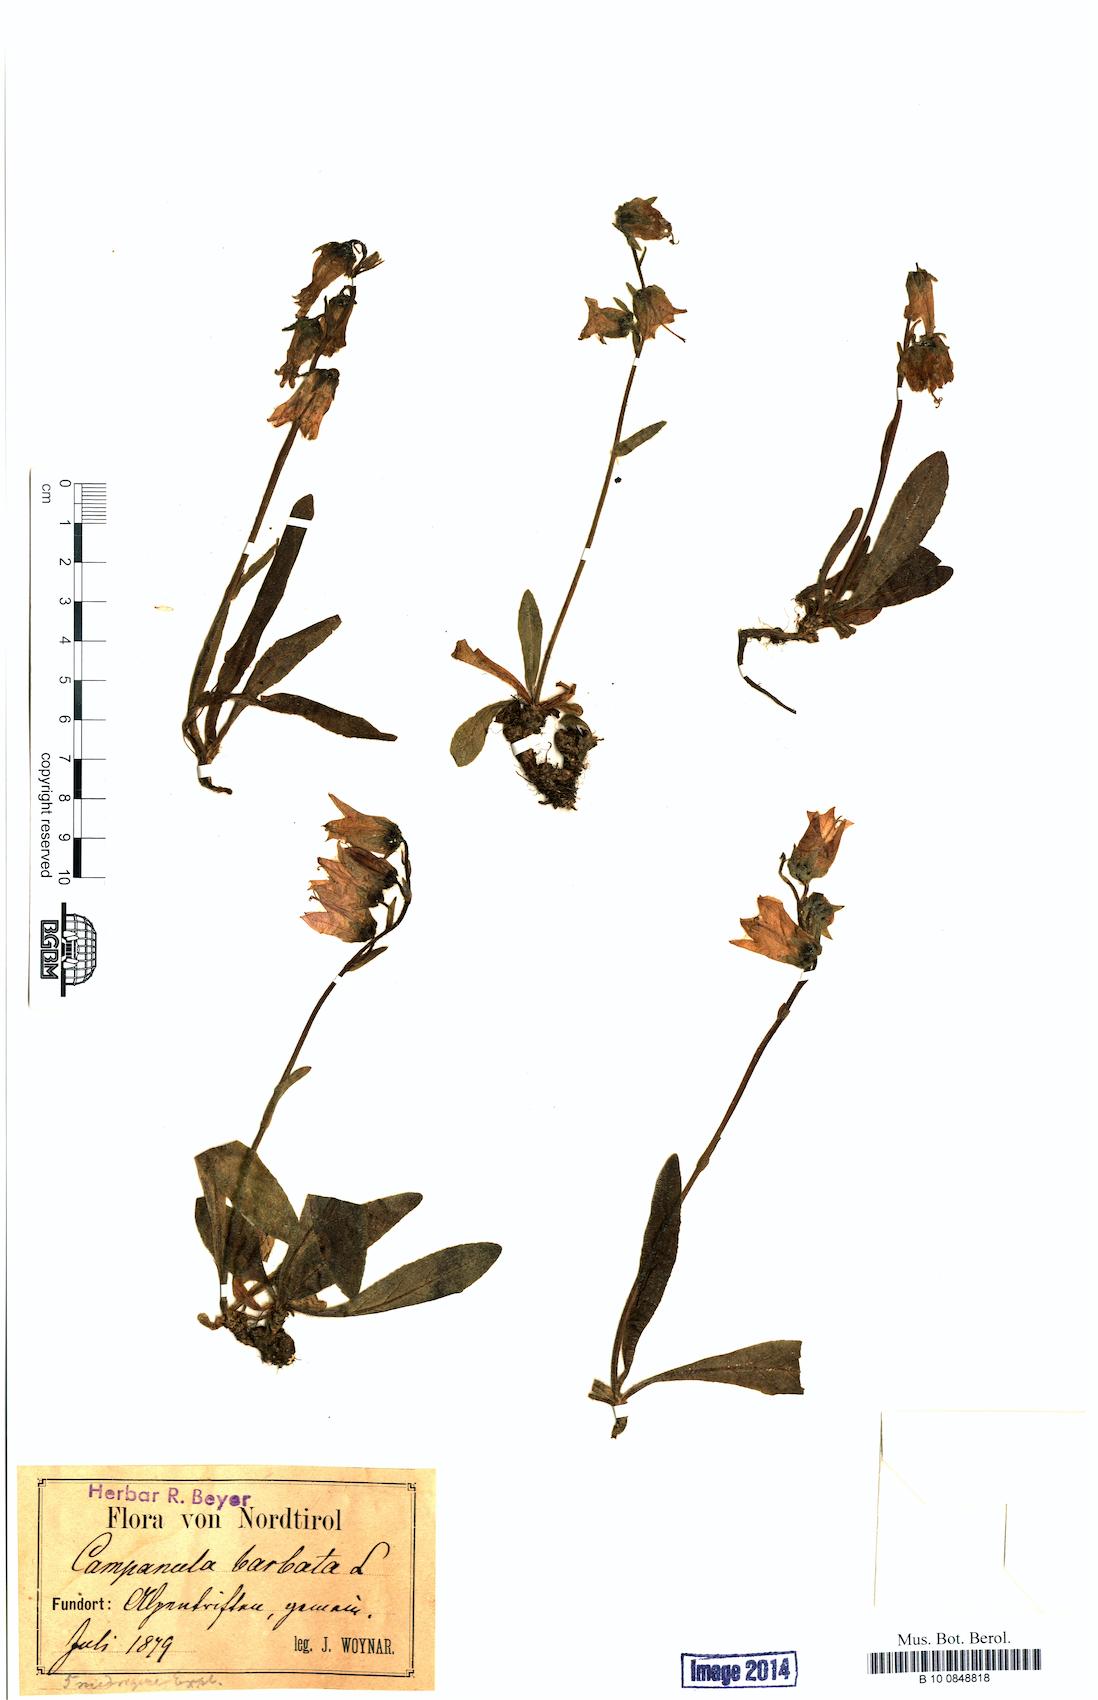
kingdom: Plantae
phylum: Tracheophyta
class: Magnoliopsida
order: Asterales
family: Campanulaceae
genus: Campanula
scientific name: Campanula barbata
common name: Bearded bellflower
